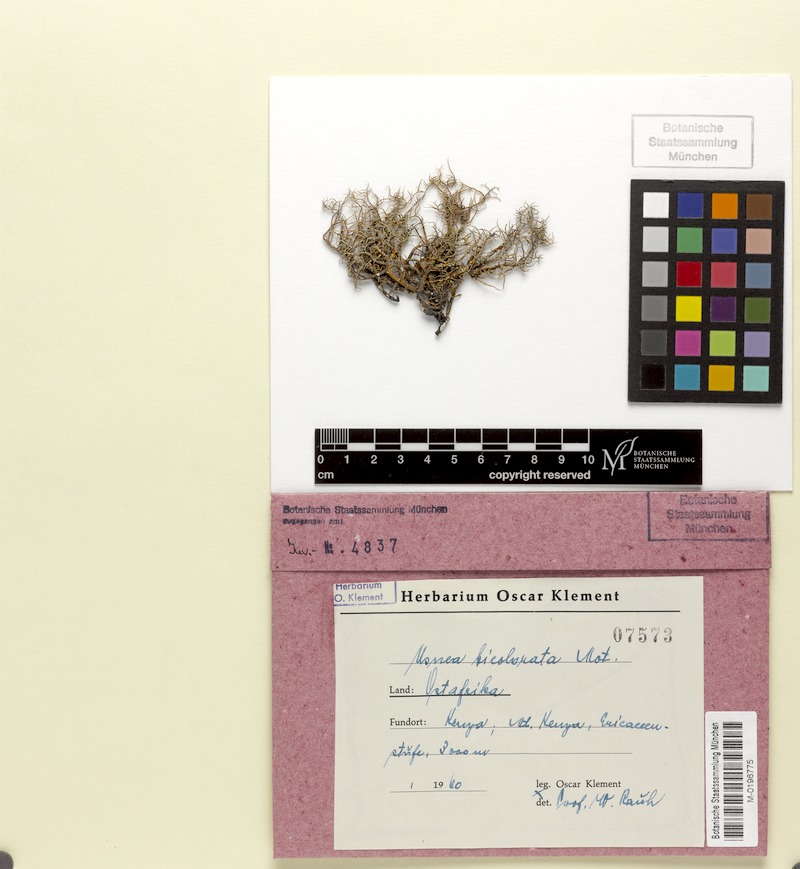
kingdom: Fungi
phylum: Ascomycota
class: Lecanoromycetes
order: Lecanorales
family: Parmeliaceae
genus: Usnea
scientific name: Usnea bicolorata
